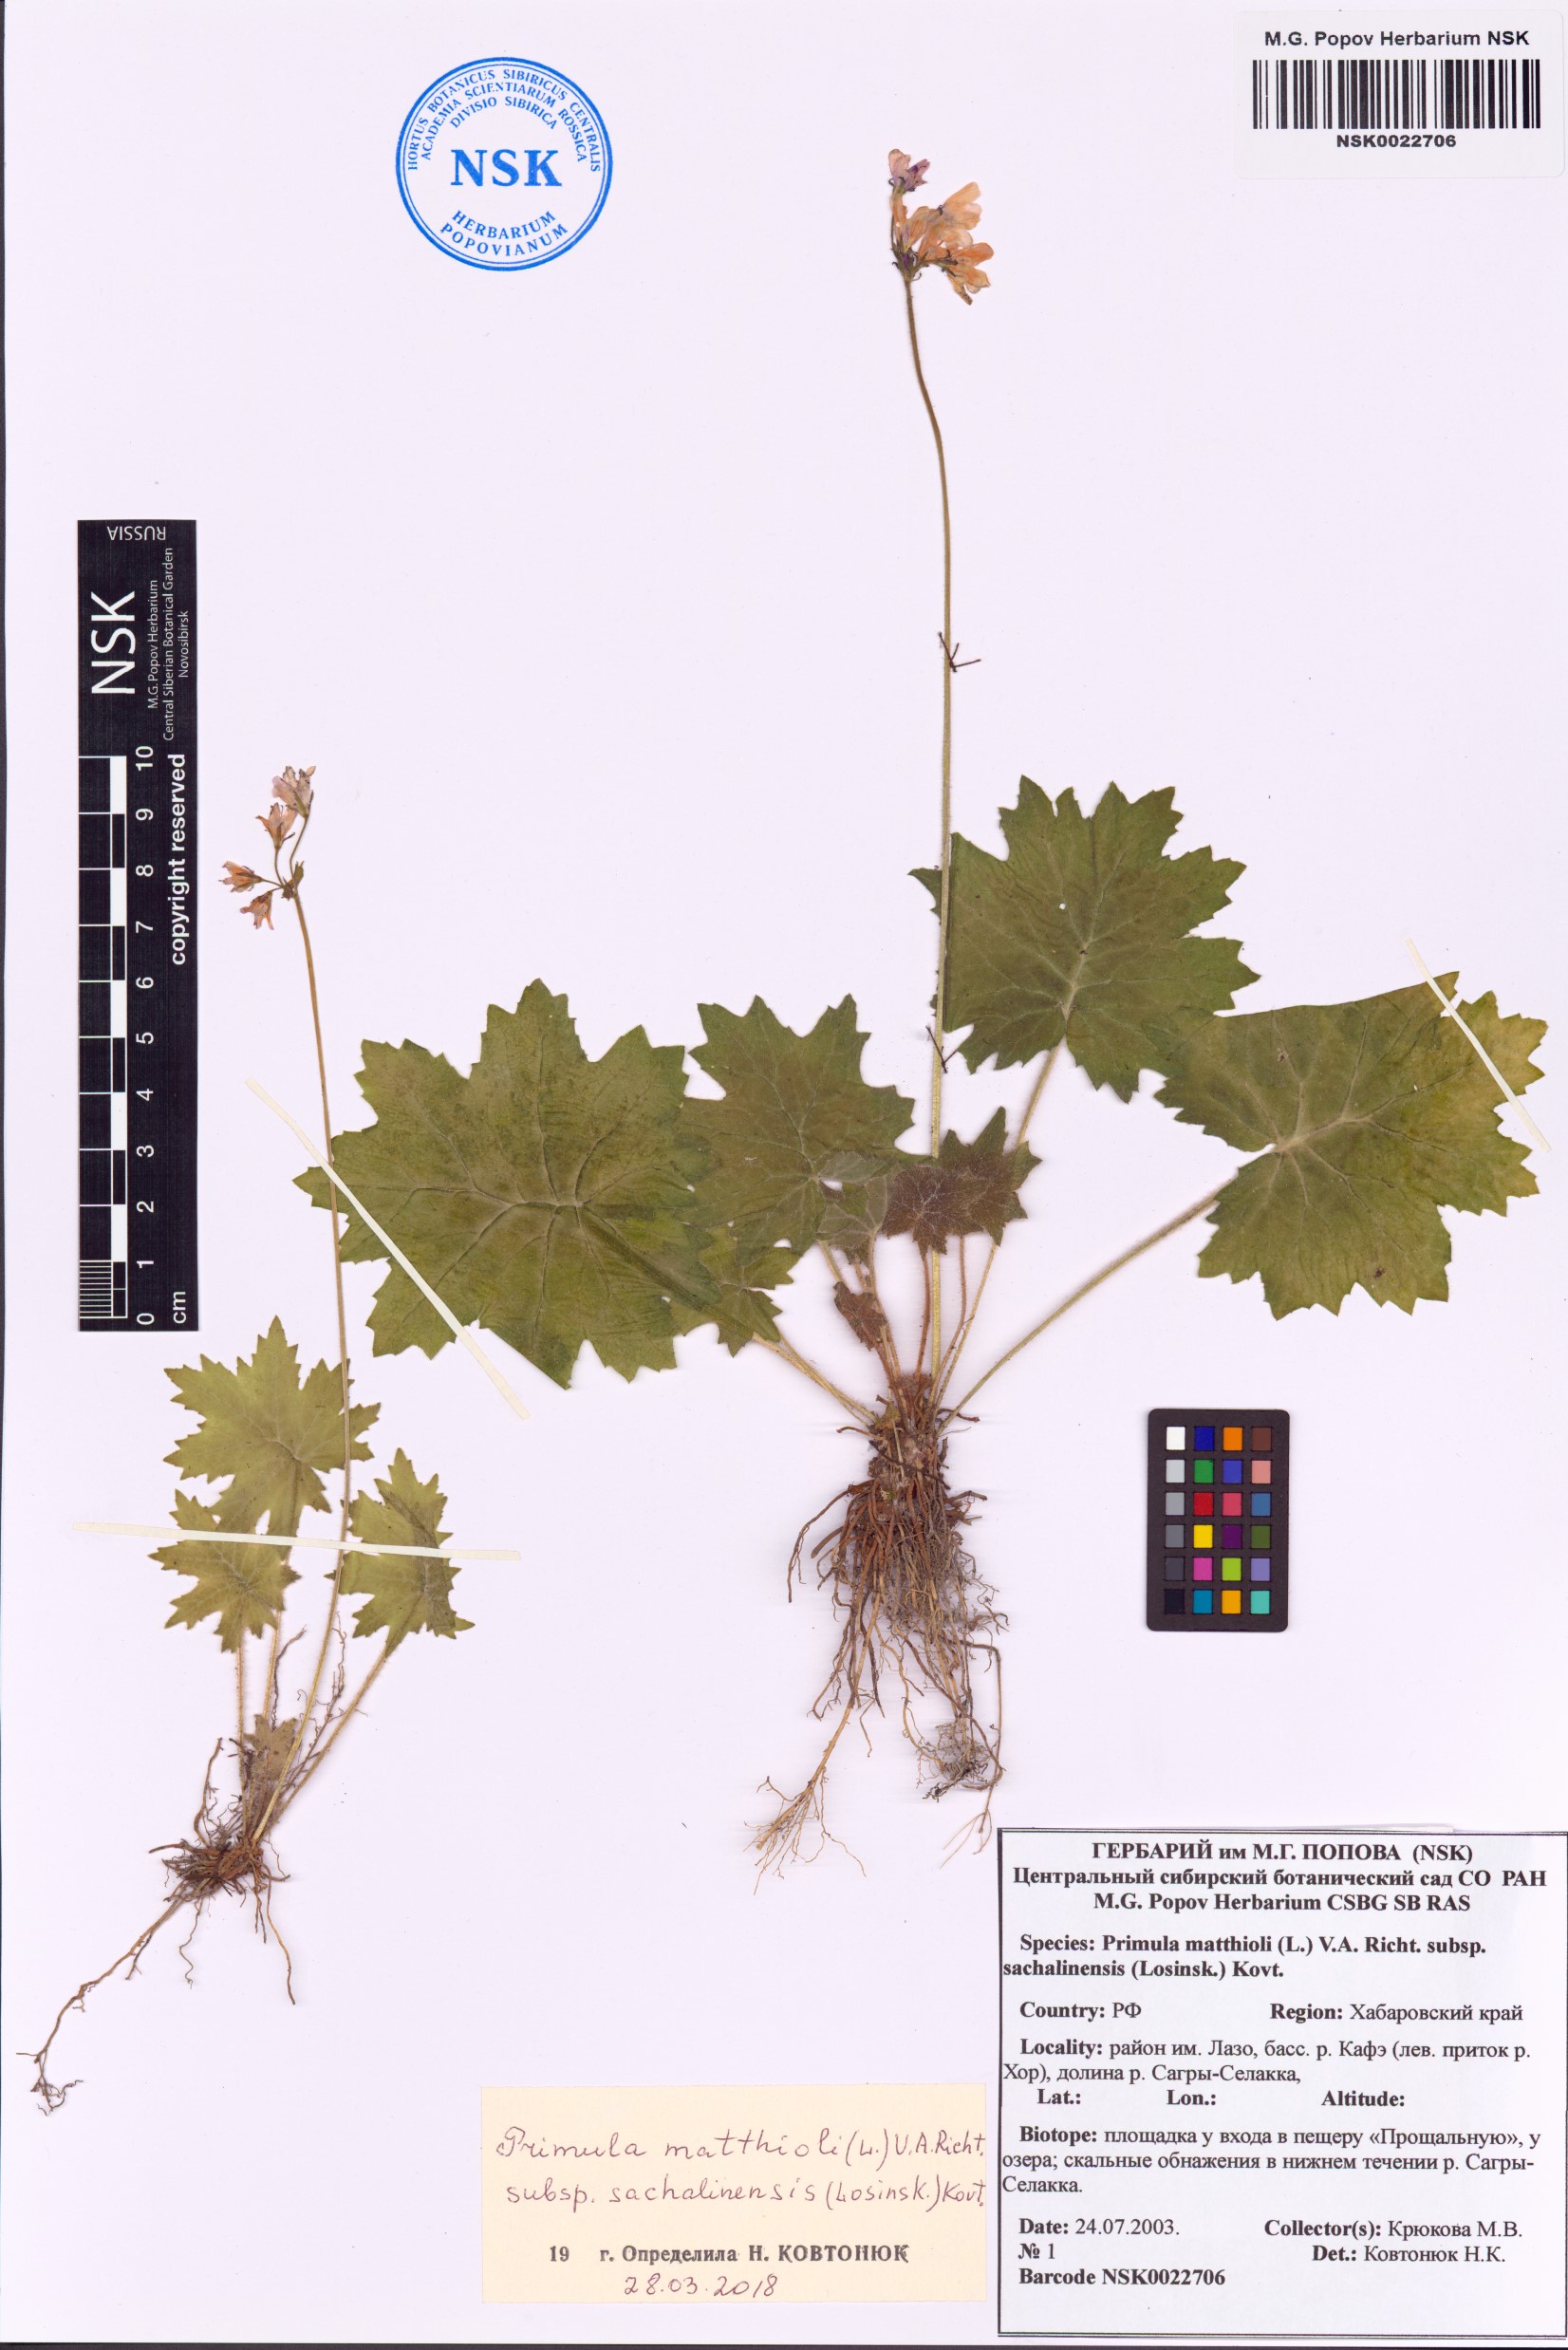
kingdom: Plantae
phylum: Tracheophyta
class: Magnoliopsida
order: Ericales
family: Primulaceae
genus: Primula
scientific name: Primula matthioli
